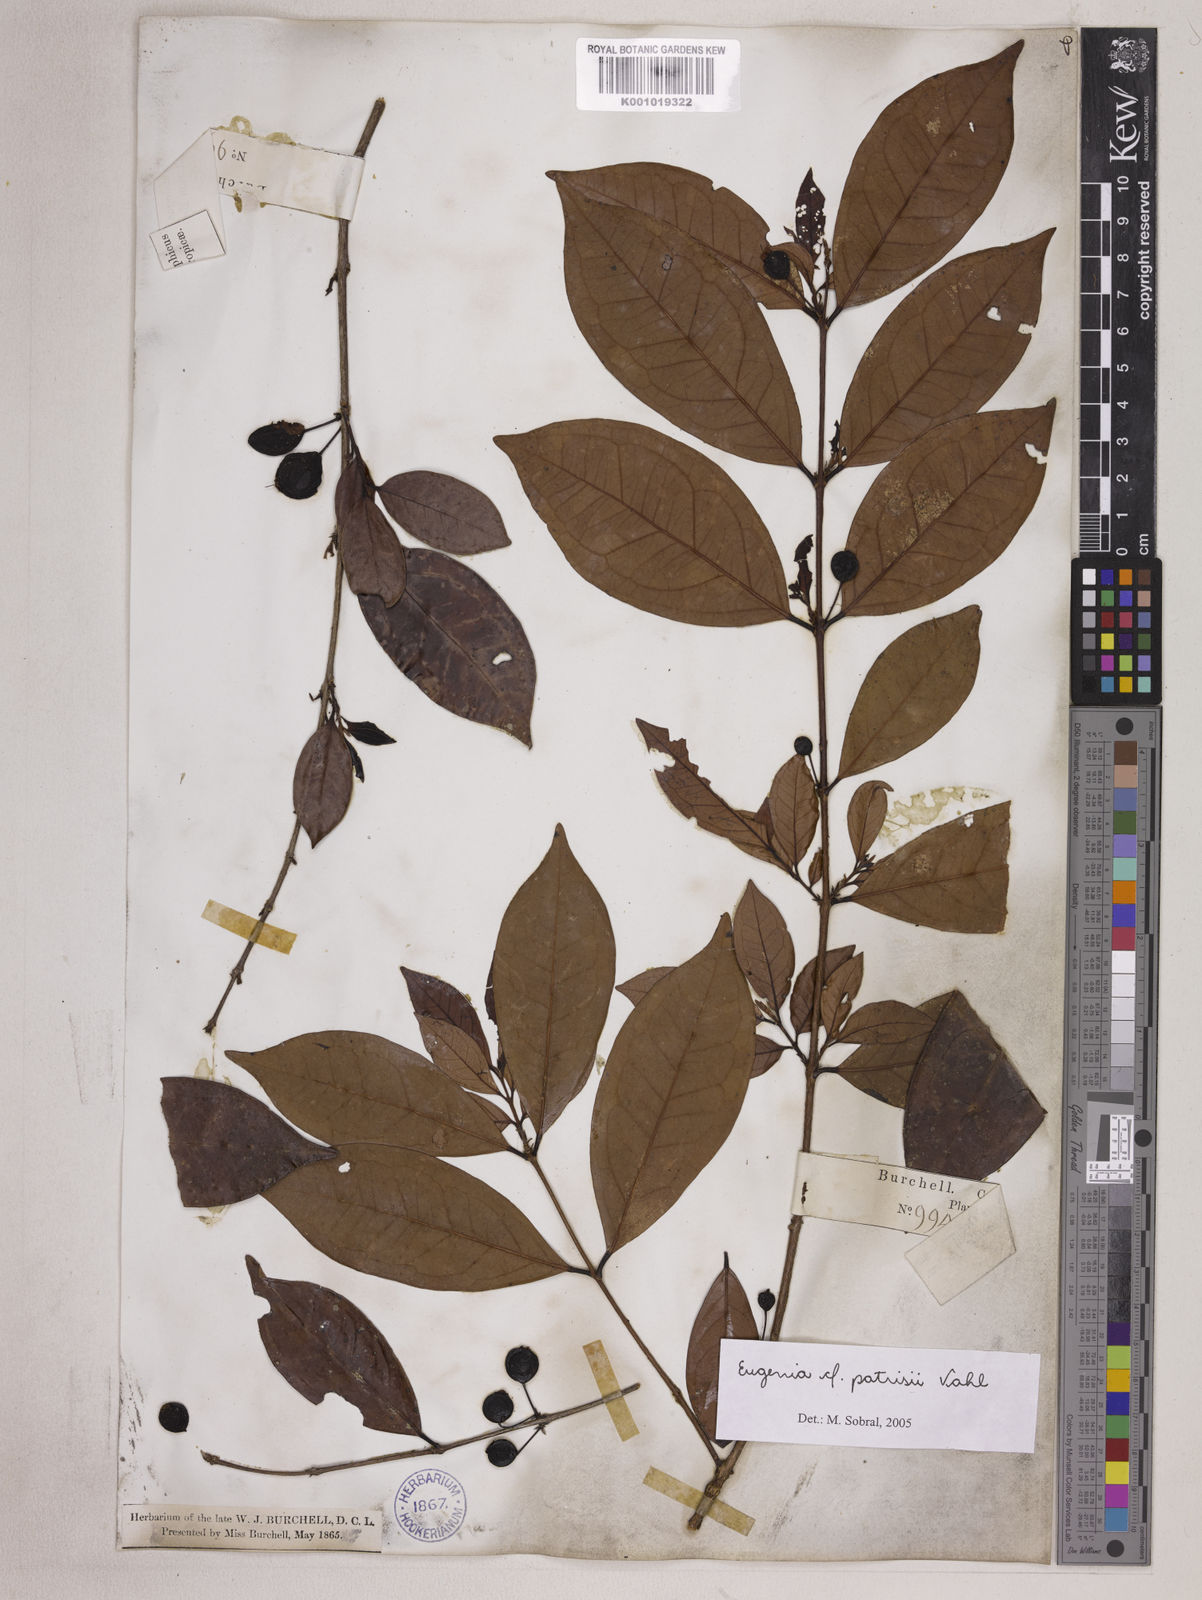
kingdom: Plantae
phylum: Tracheophyta
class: Magnoliopsida
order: Myrtales
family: Myrtaceae
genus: Eugenia
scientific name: Eugenia patrisii
